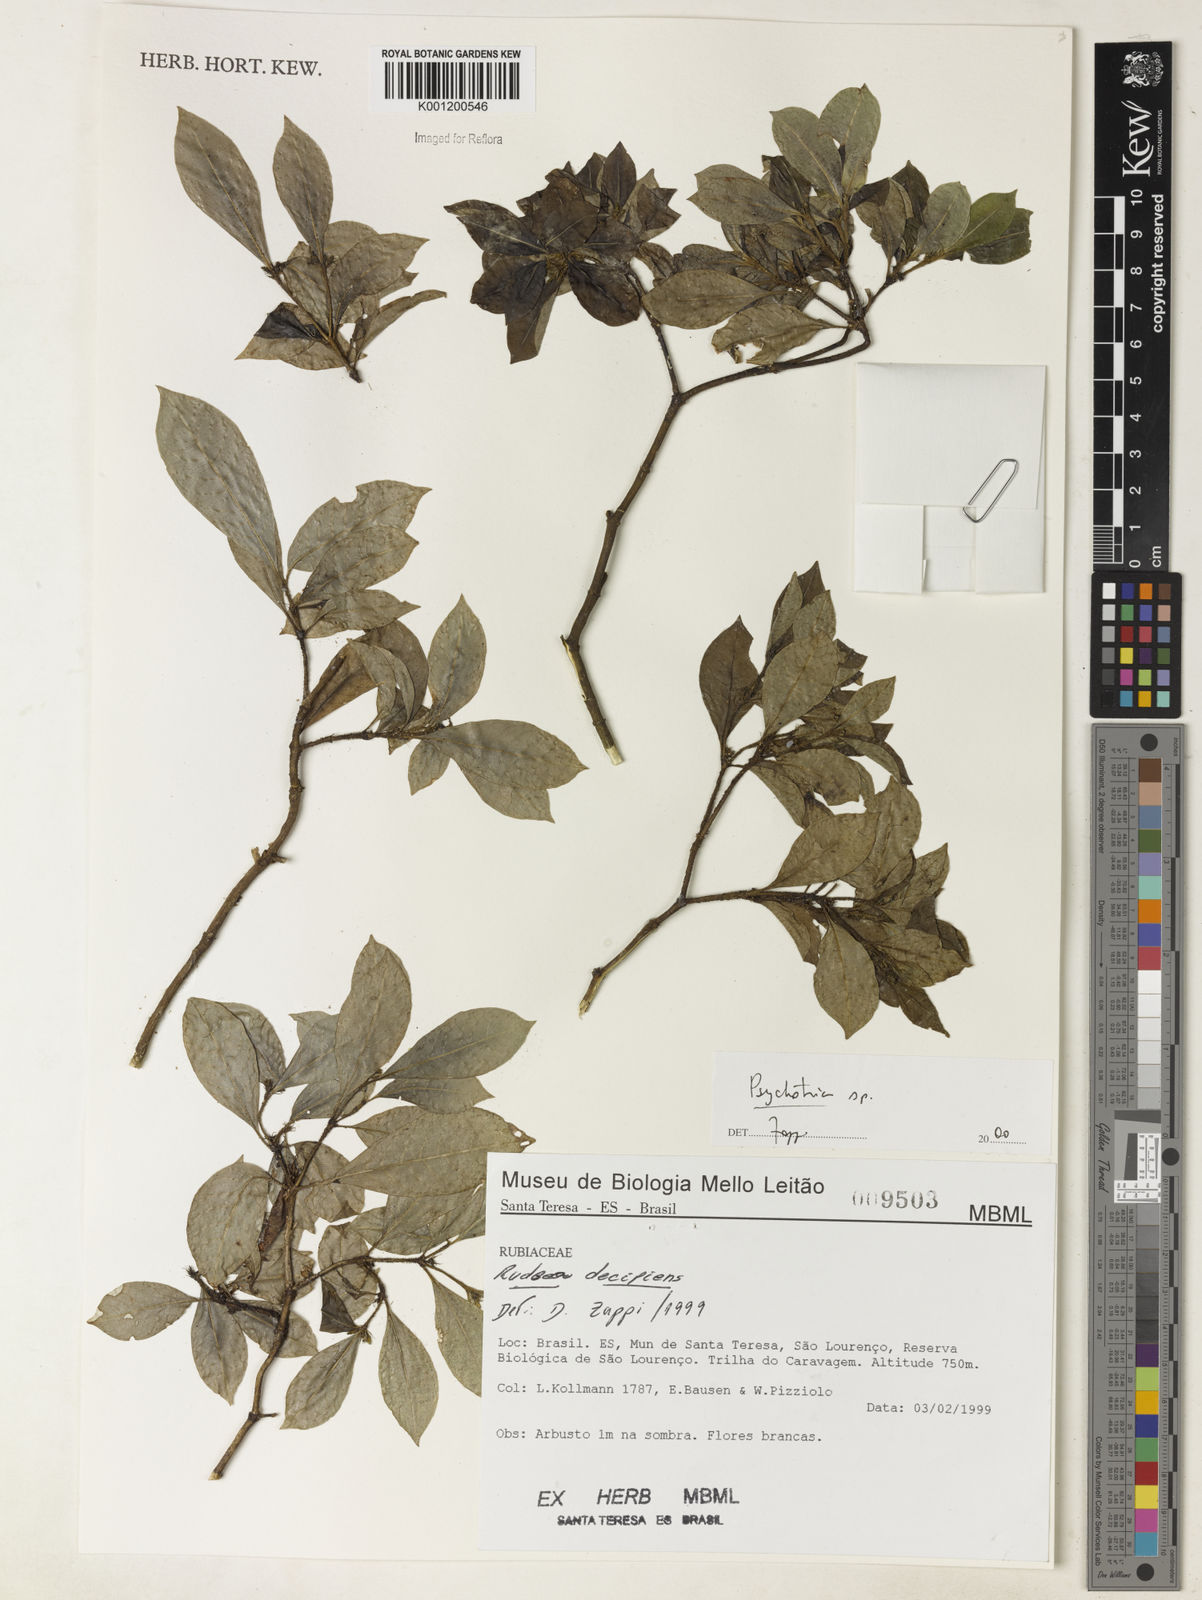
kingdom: Plantae
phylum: Tracheophyta
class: Magnoliopsida
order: Gentianales
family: Rubiaceae
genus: Psychotria
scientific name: Psychotria
